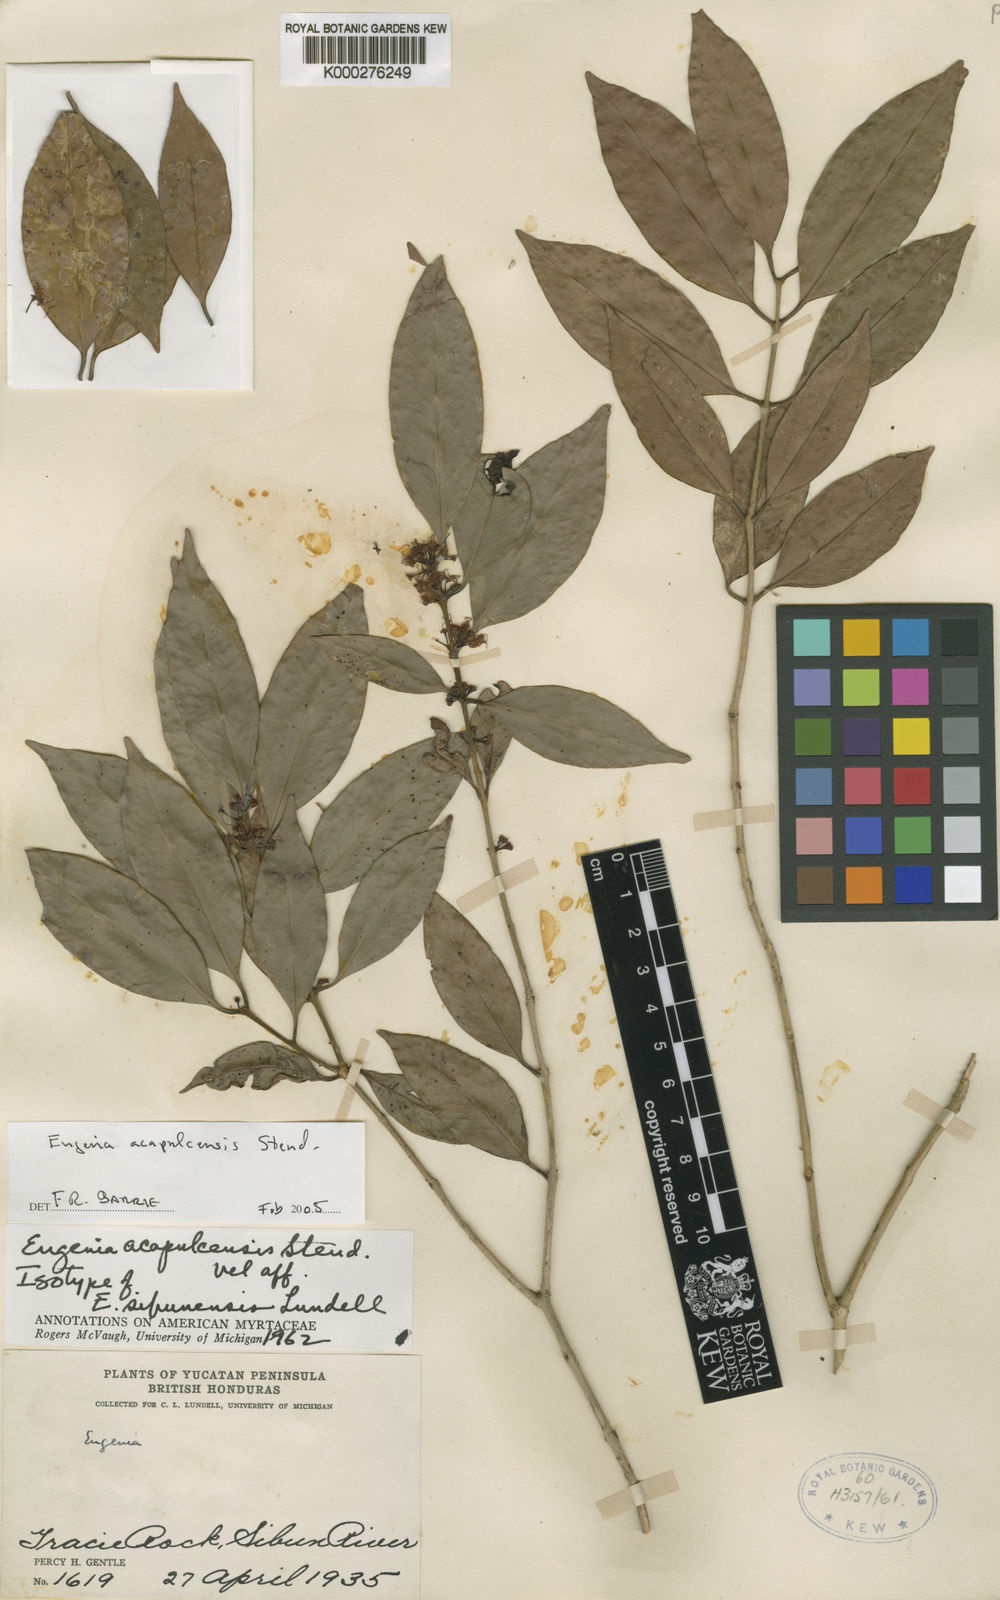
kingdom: Plantae
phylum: Tracheophyta
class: Magnoliopsida
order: Myrtales
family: Myrtaceae
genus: Eugenia
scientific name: Eugenia acapulcensis
